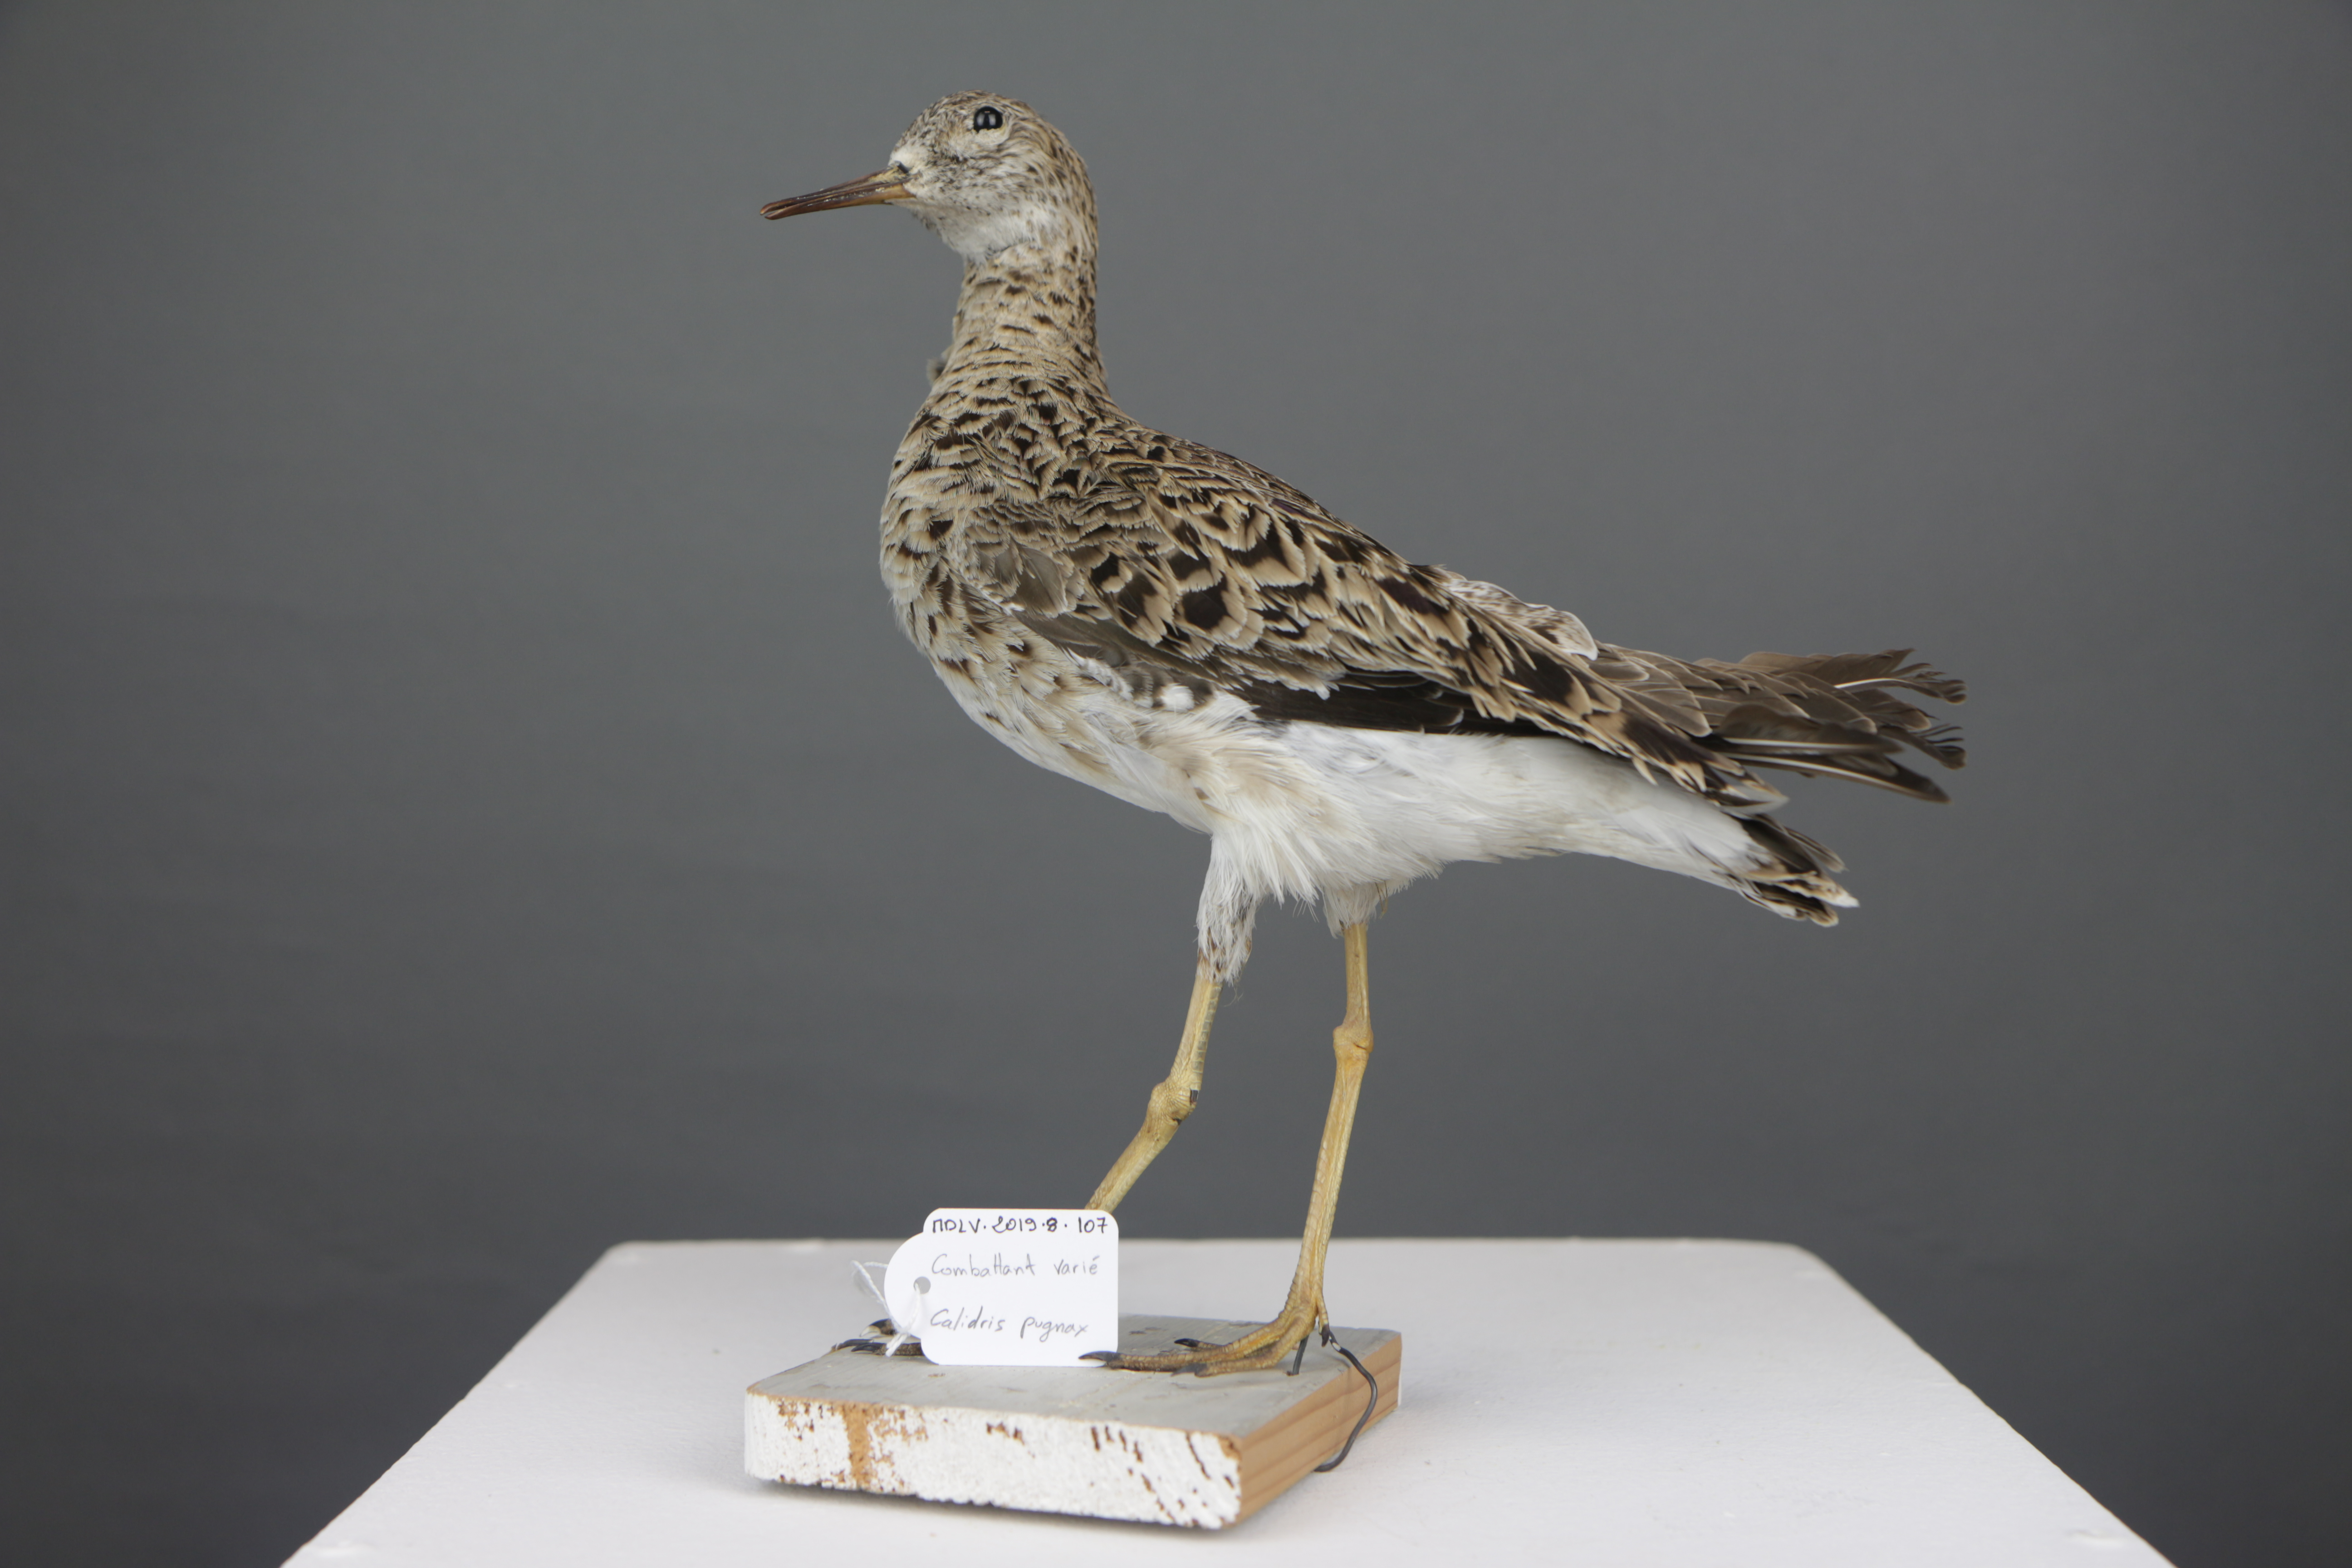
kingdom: Animalia
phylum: Chordata
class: Aves
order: Charadriiformes
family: Scolopacidae
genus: Calidris
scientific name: Calidris pugnax
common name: Ruff
